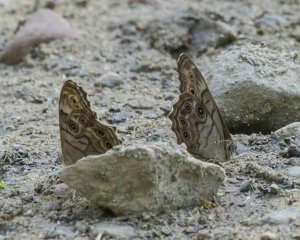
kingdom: Animalia
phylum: Arthropoda
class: Insecta
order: Lepidoptera
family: Nymphalidae
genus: Lethe
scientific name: Lethe anthedon
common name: Northern Pearly-Eye
